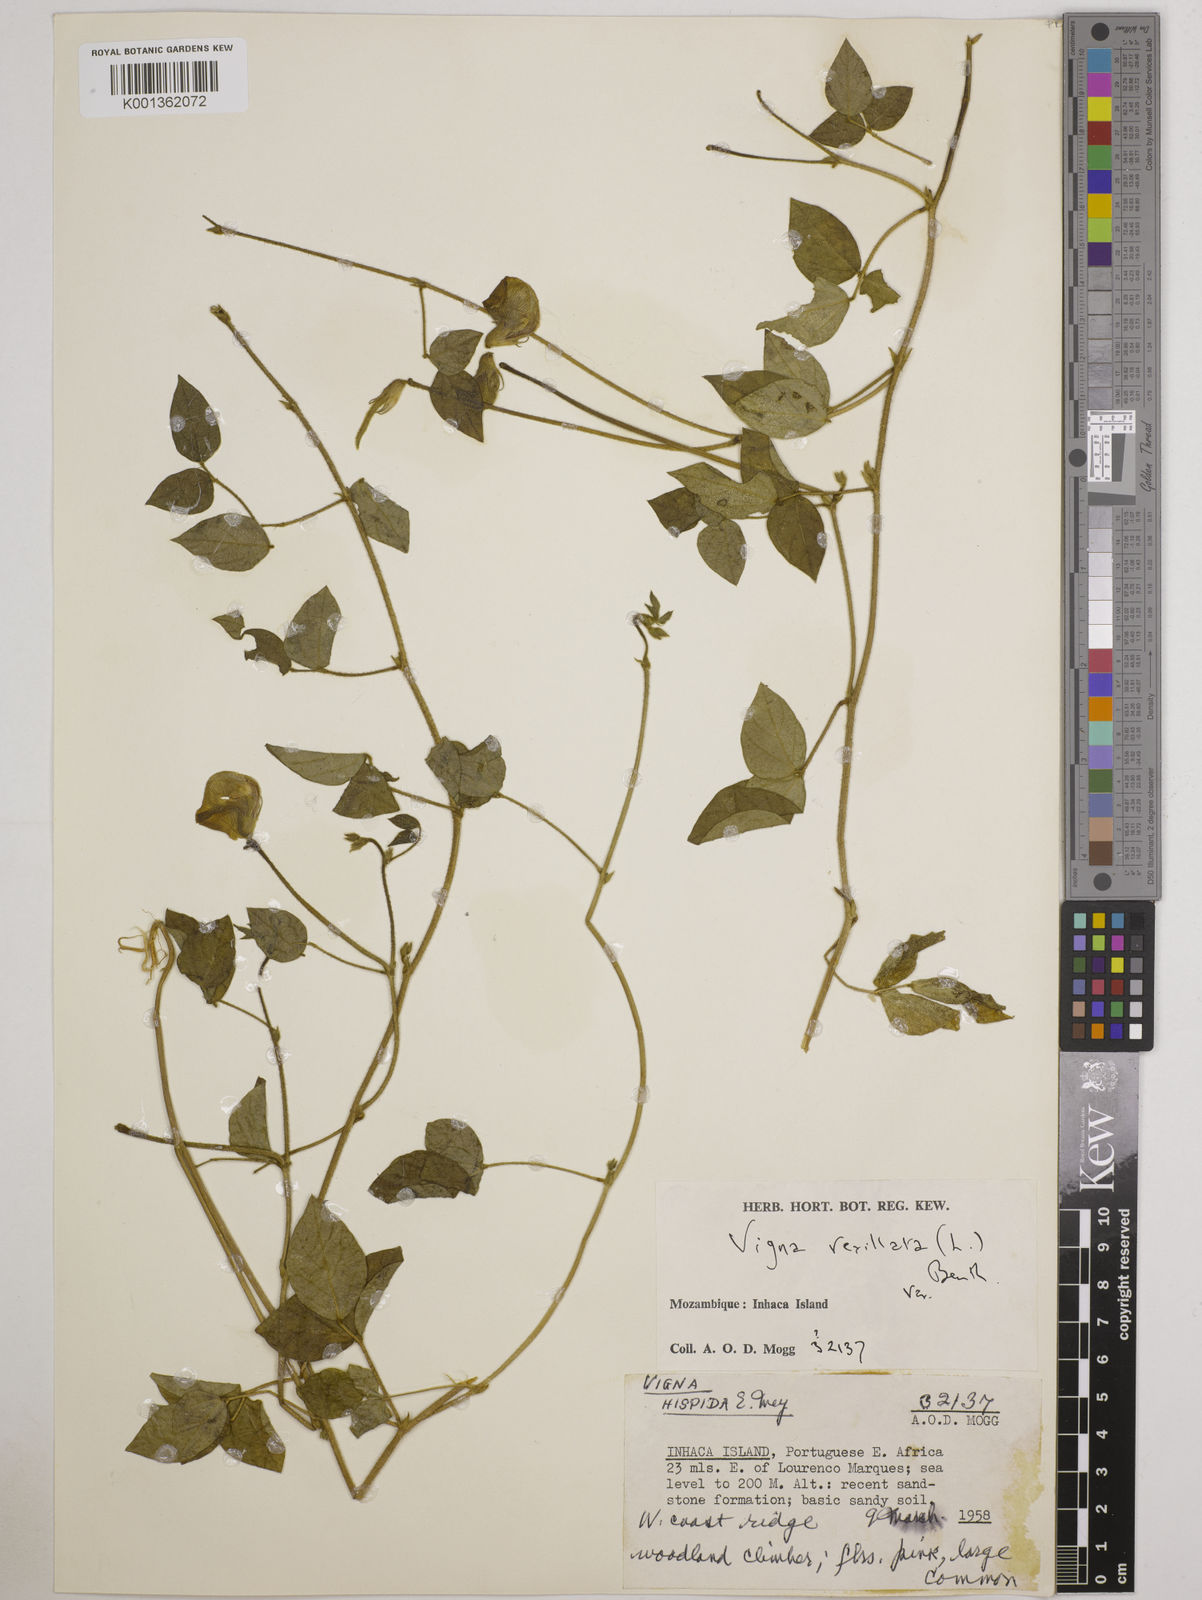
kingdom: Plantae
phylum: Tracheophyta
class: Magnoliopsida
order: Fabales
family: Fabaceae
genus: Vigna
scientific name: Vigna vexillata
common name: Zombi pea
